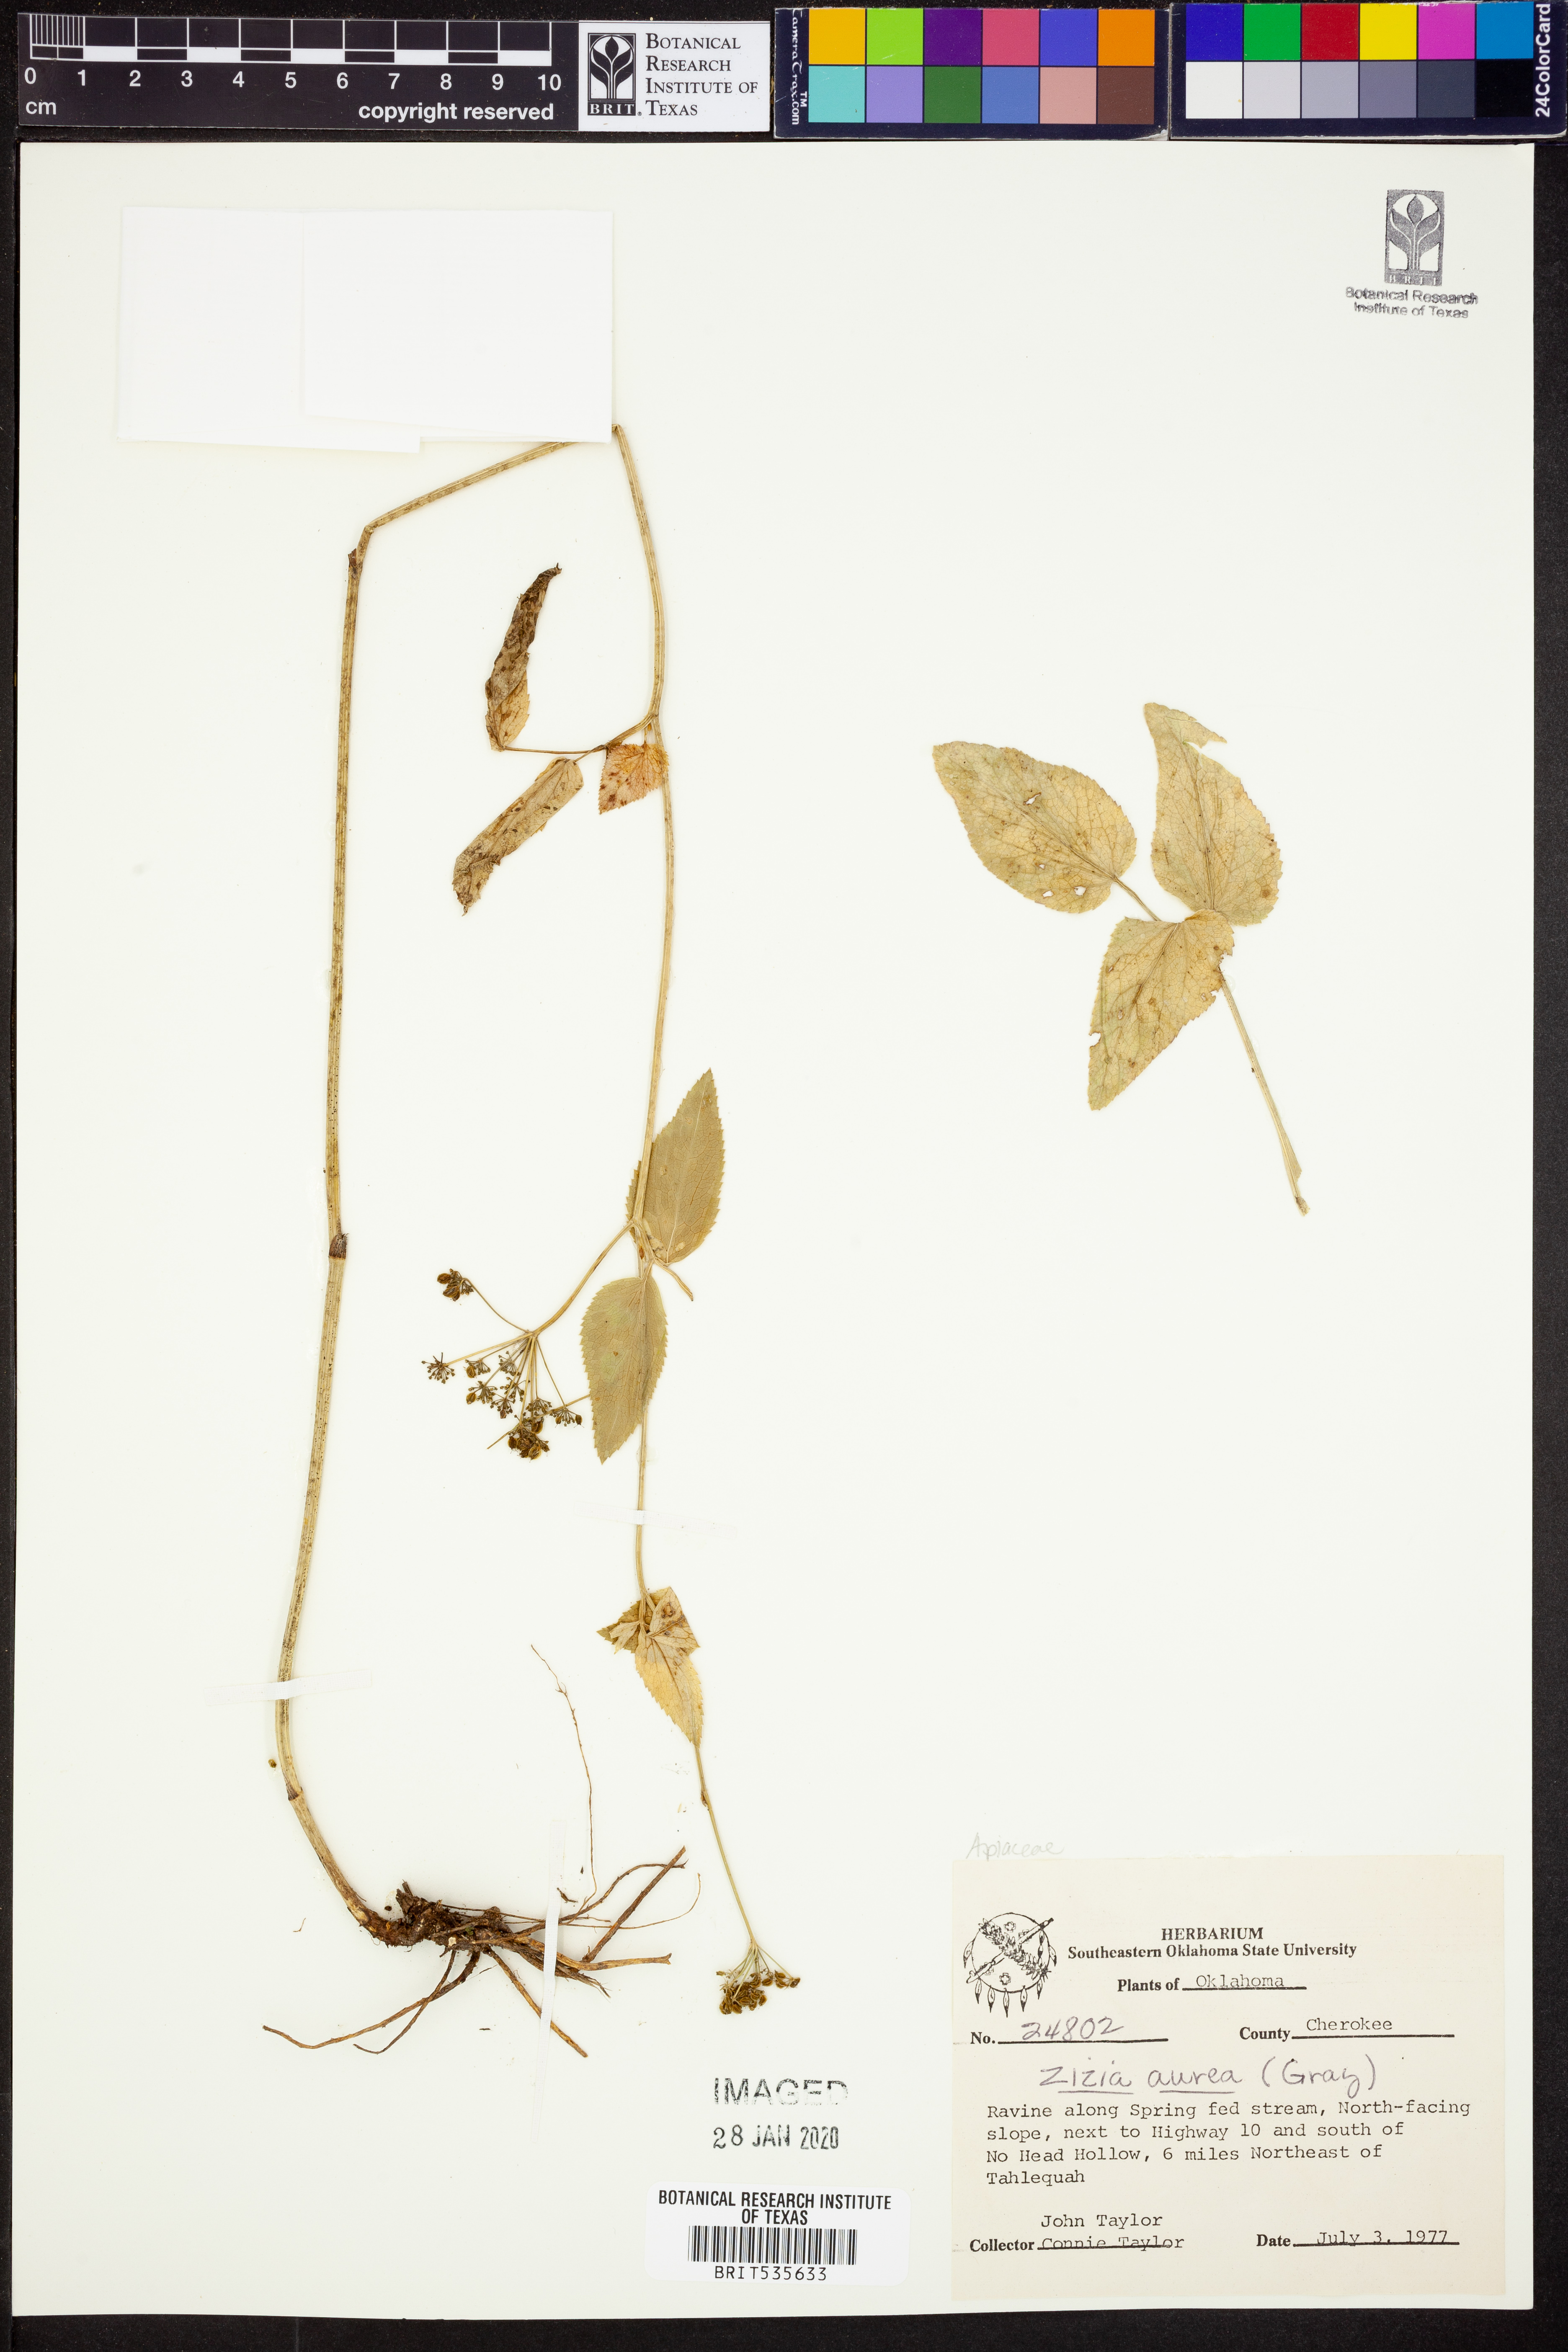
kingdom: Plantae
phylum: Tracheophyta
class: Magnoliopsida
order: Apiales
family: Apiaceae
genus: Zizia
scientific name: Zizia aurea
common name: Golden alexanders
